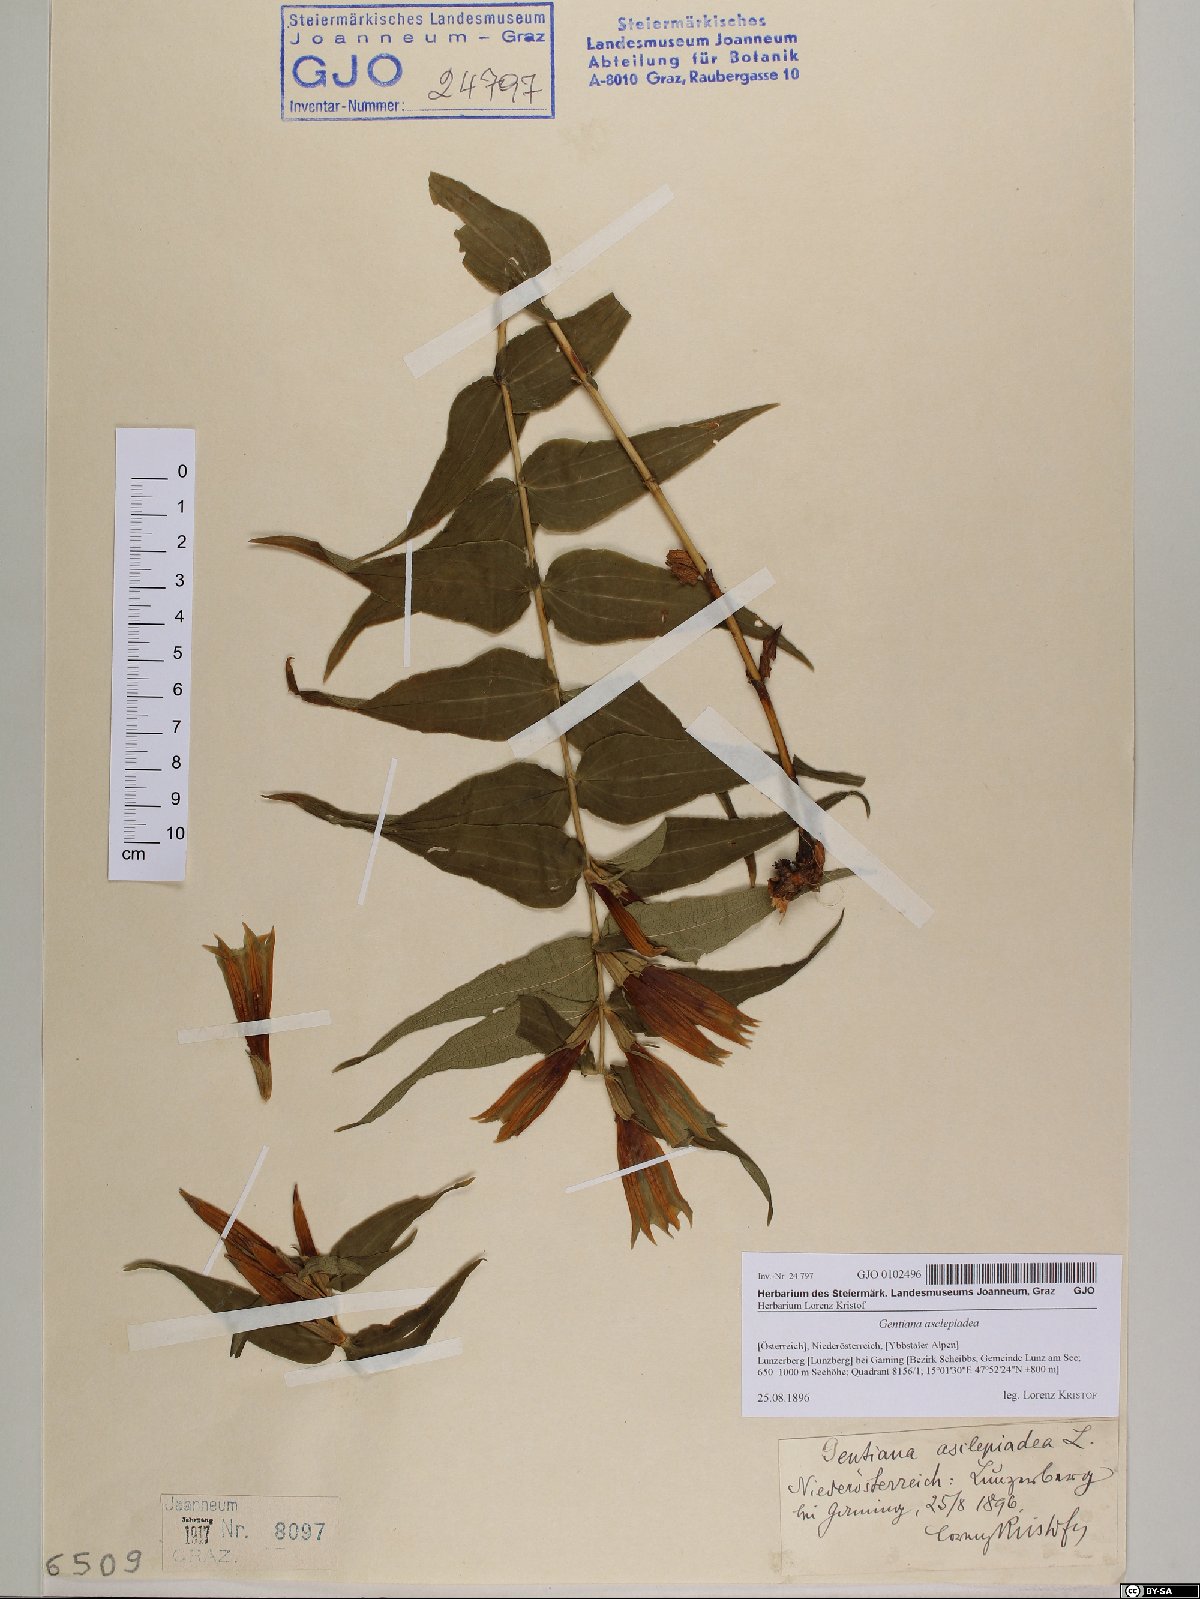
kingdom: Plantae
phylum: Tracheophyta
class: Magnoliopsida
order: Gentianales
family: Gentianaceae
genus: Gentiana
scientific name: Gentiana asclepiadea
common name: Willow gentian
